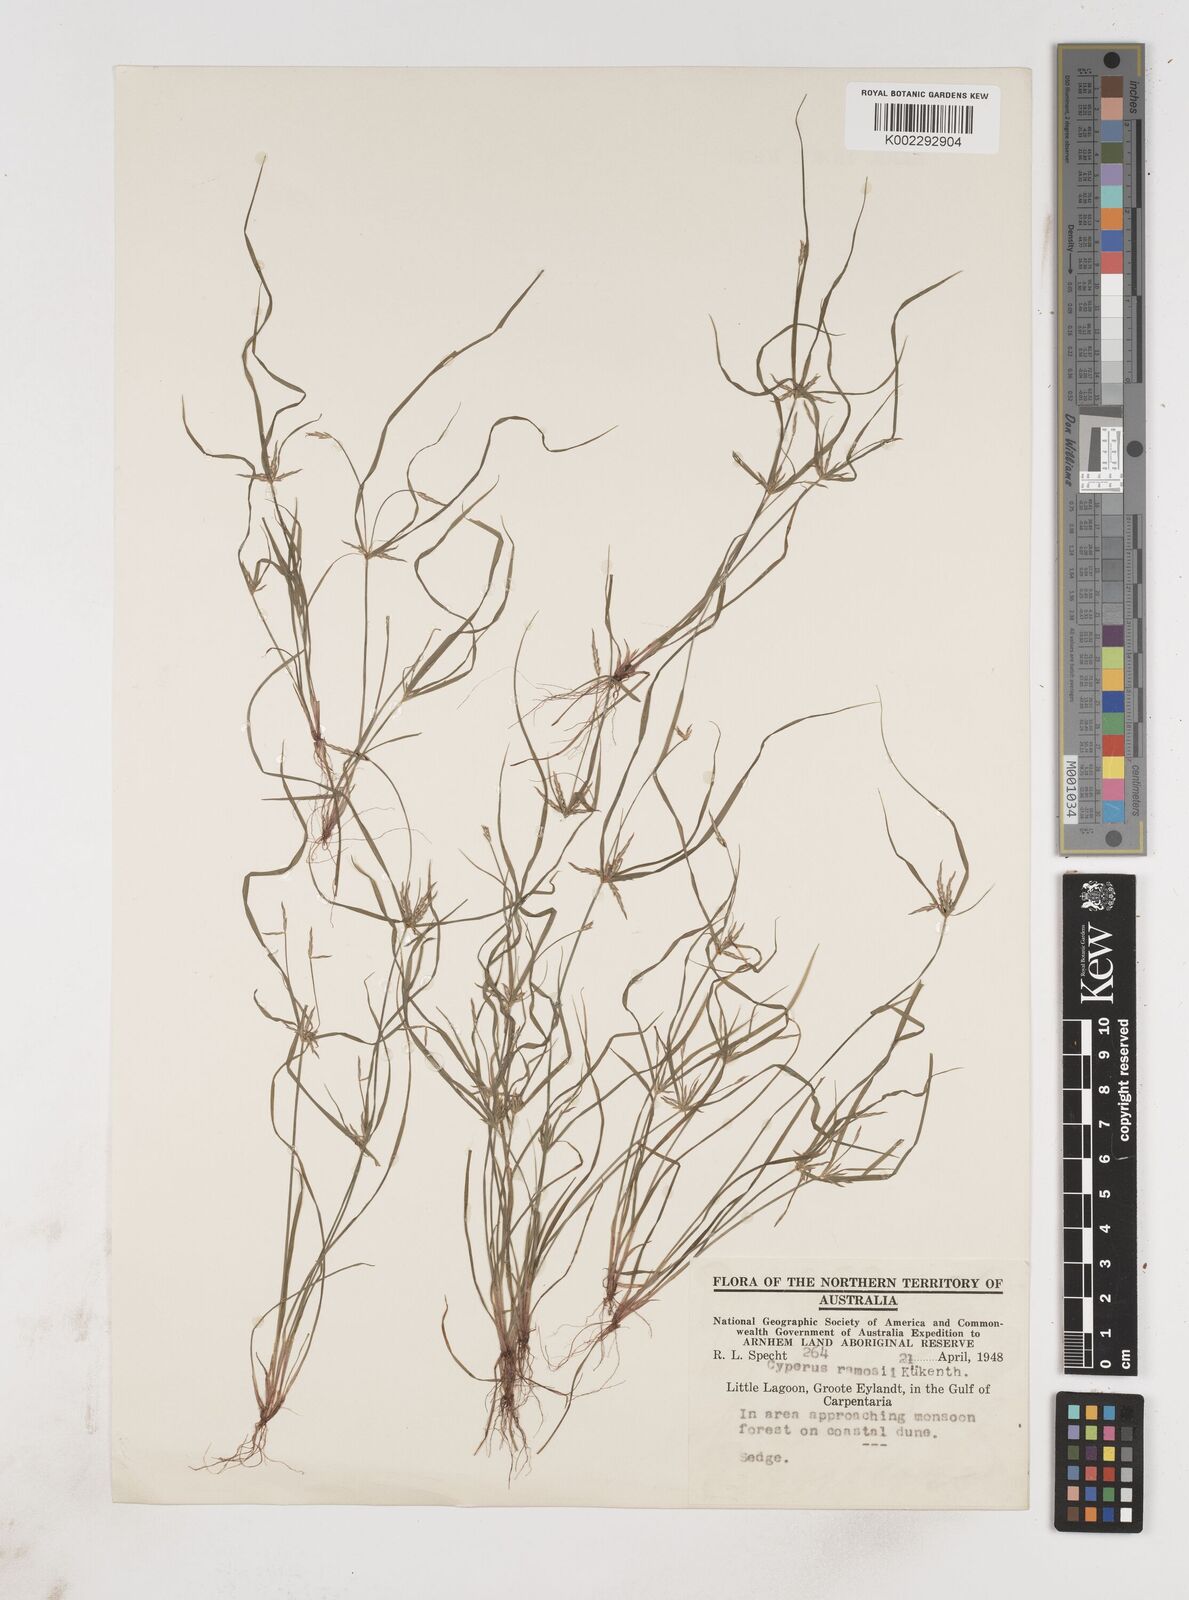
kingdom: Plantae
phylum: Tracheophyta
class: Liliopsida
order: Poales
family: Cyperaceae
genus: Cyperus
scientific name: Cyperus zollingeri
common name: Roadside flatsedge
